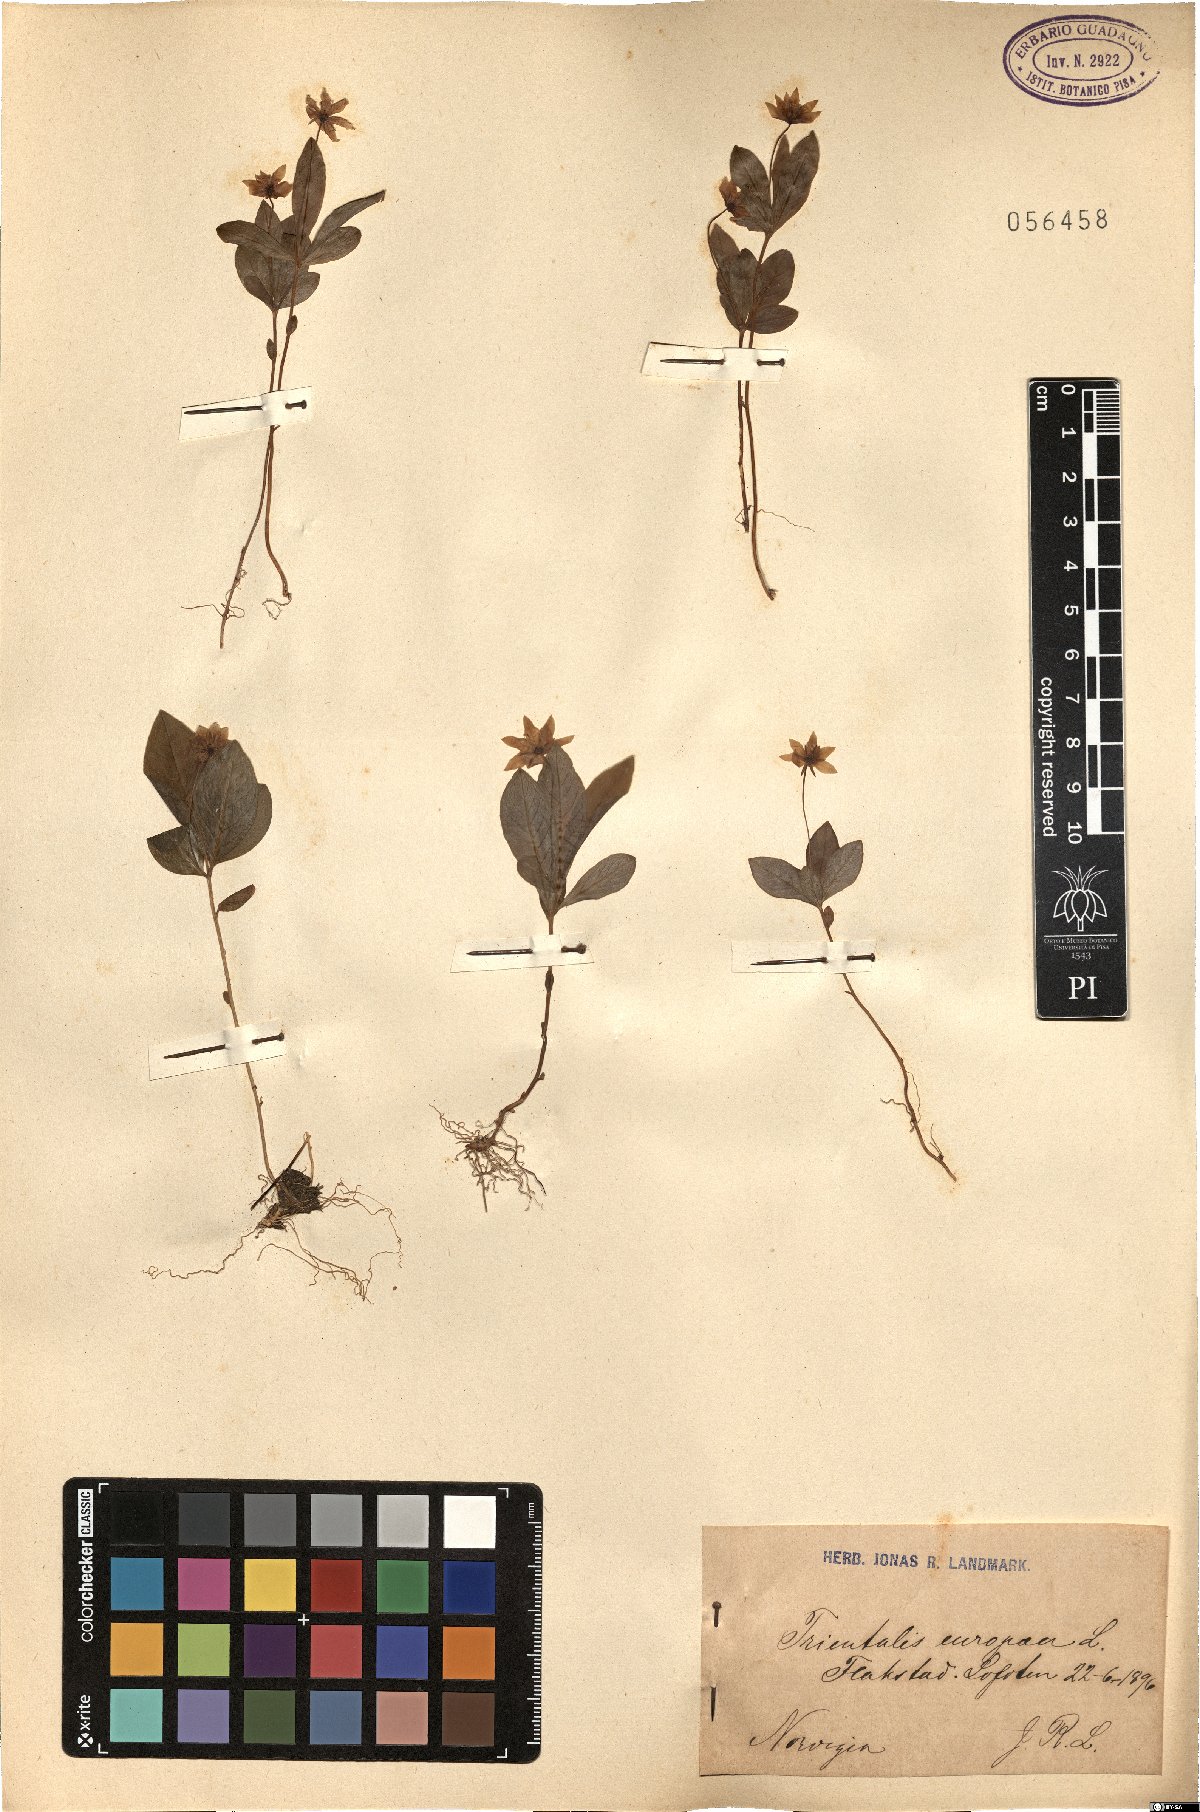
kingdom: Plantae
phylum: Tracheophyta
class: Magnoliopsida
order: Ericales
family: Primulaceae
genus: Lysimachia
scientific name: Lysimachia europaea
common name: Arctic starflower
